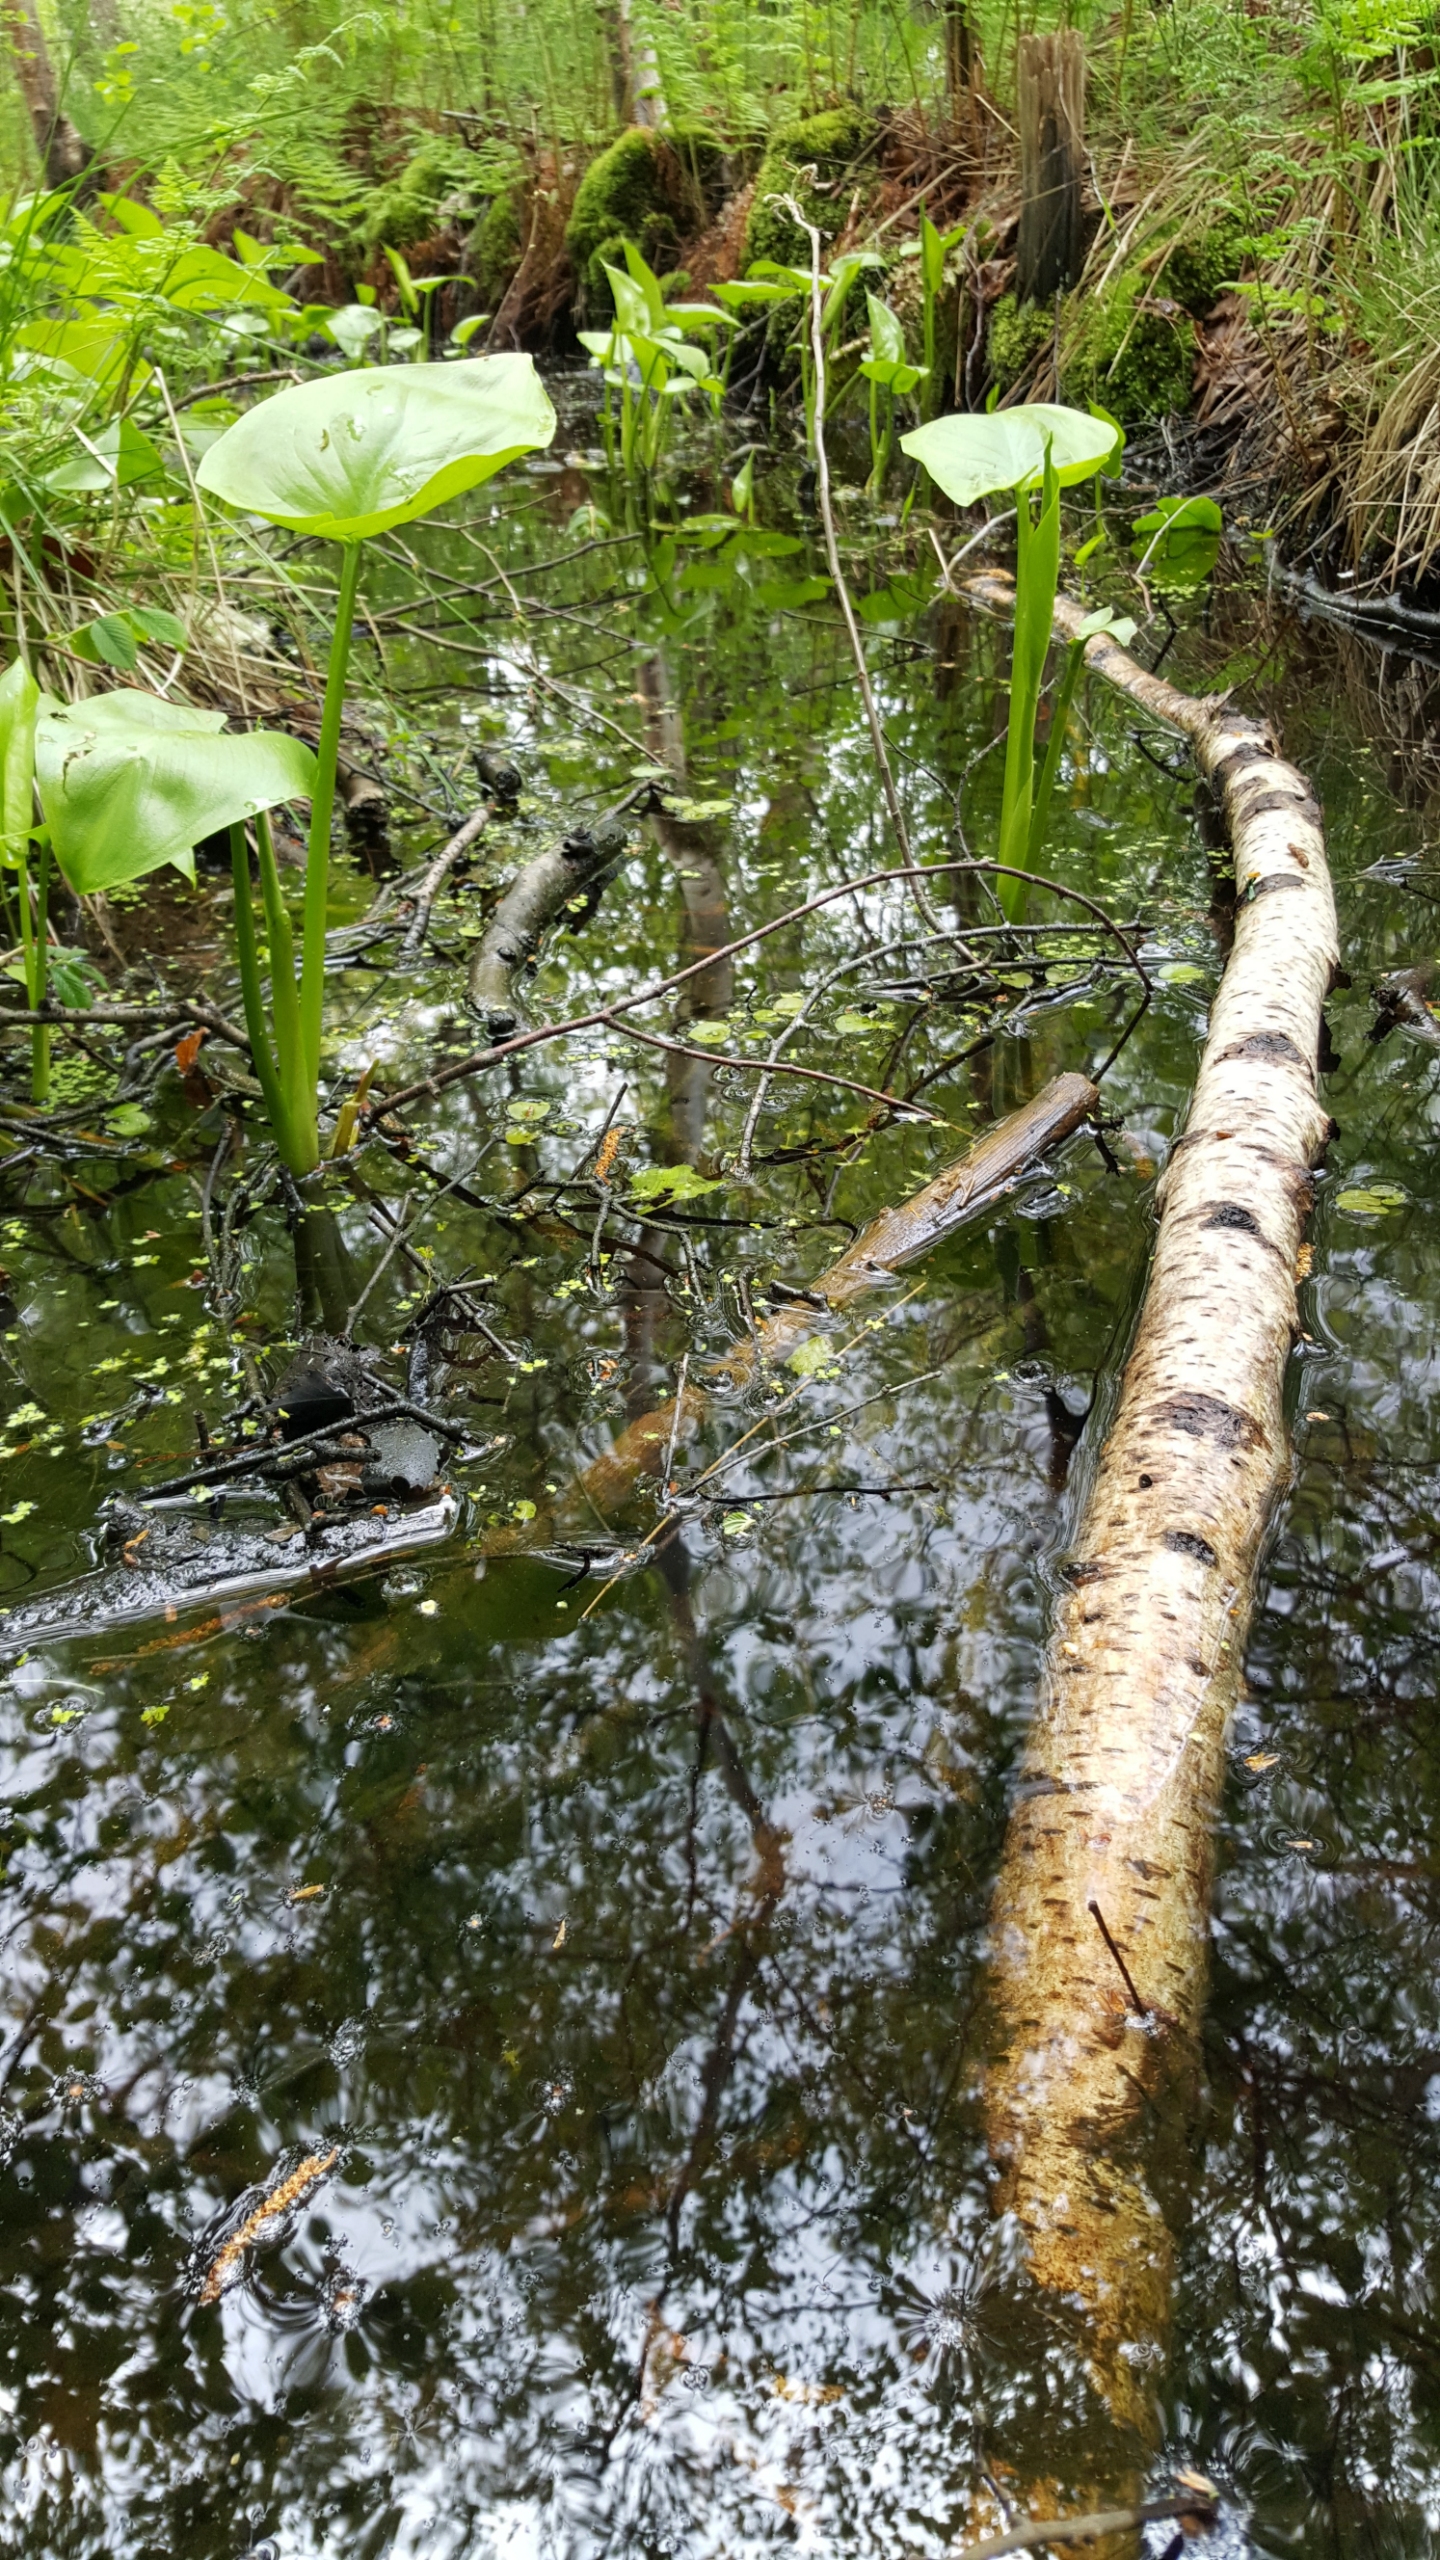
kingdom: Plantae
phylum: Tracheophyta
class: Liliopsida
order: Alismatales
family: Araceae
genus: Calla
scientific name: Calla palustris
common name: Kærmysse
